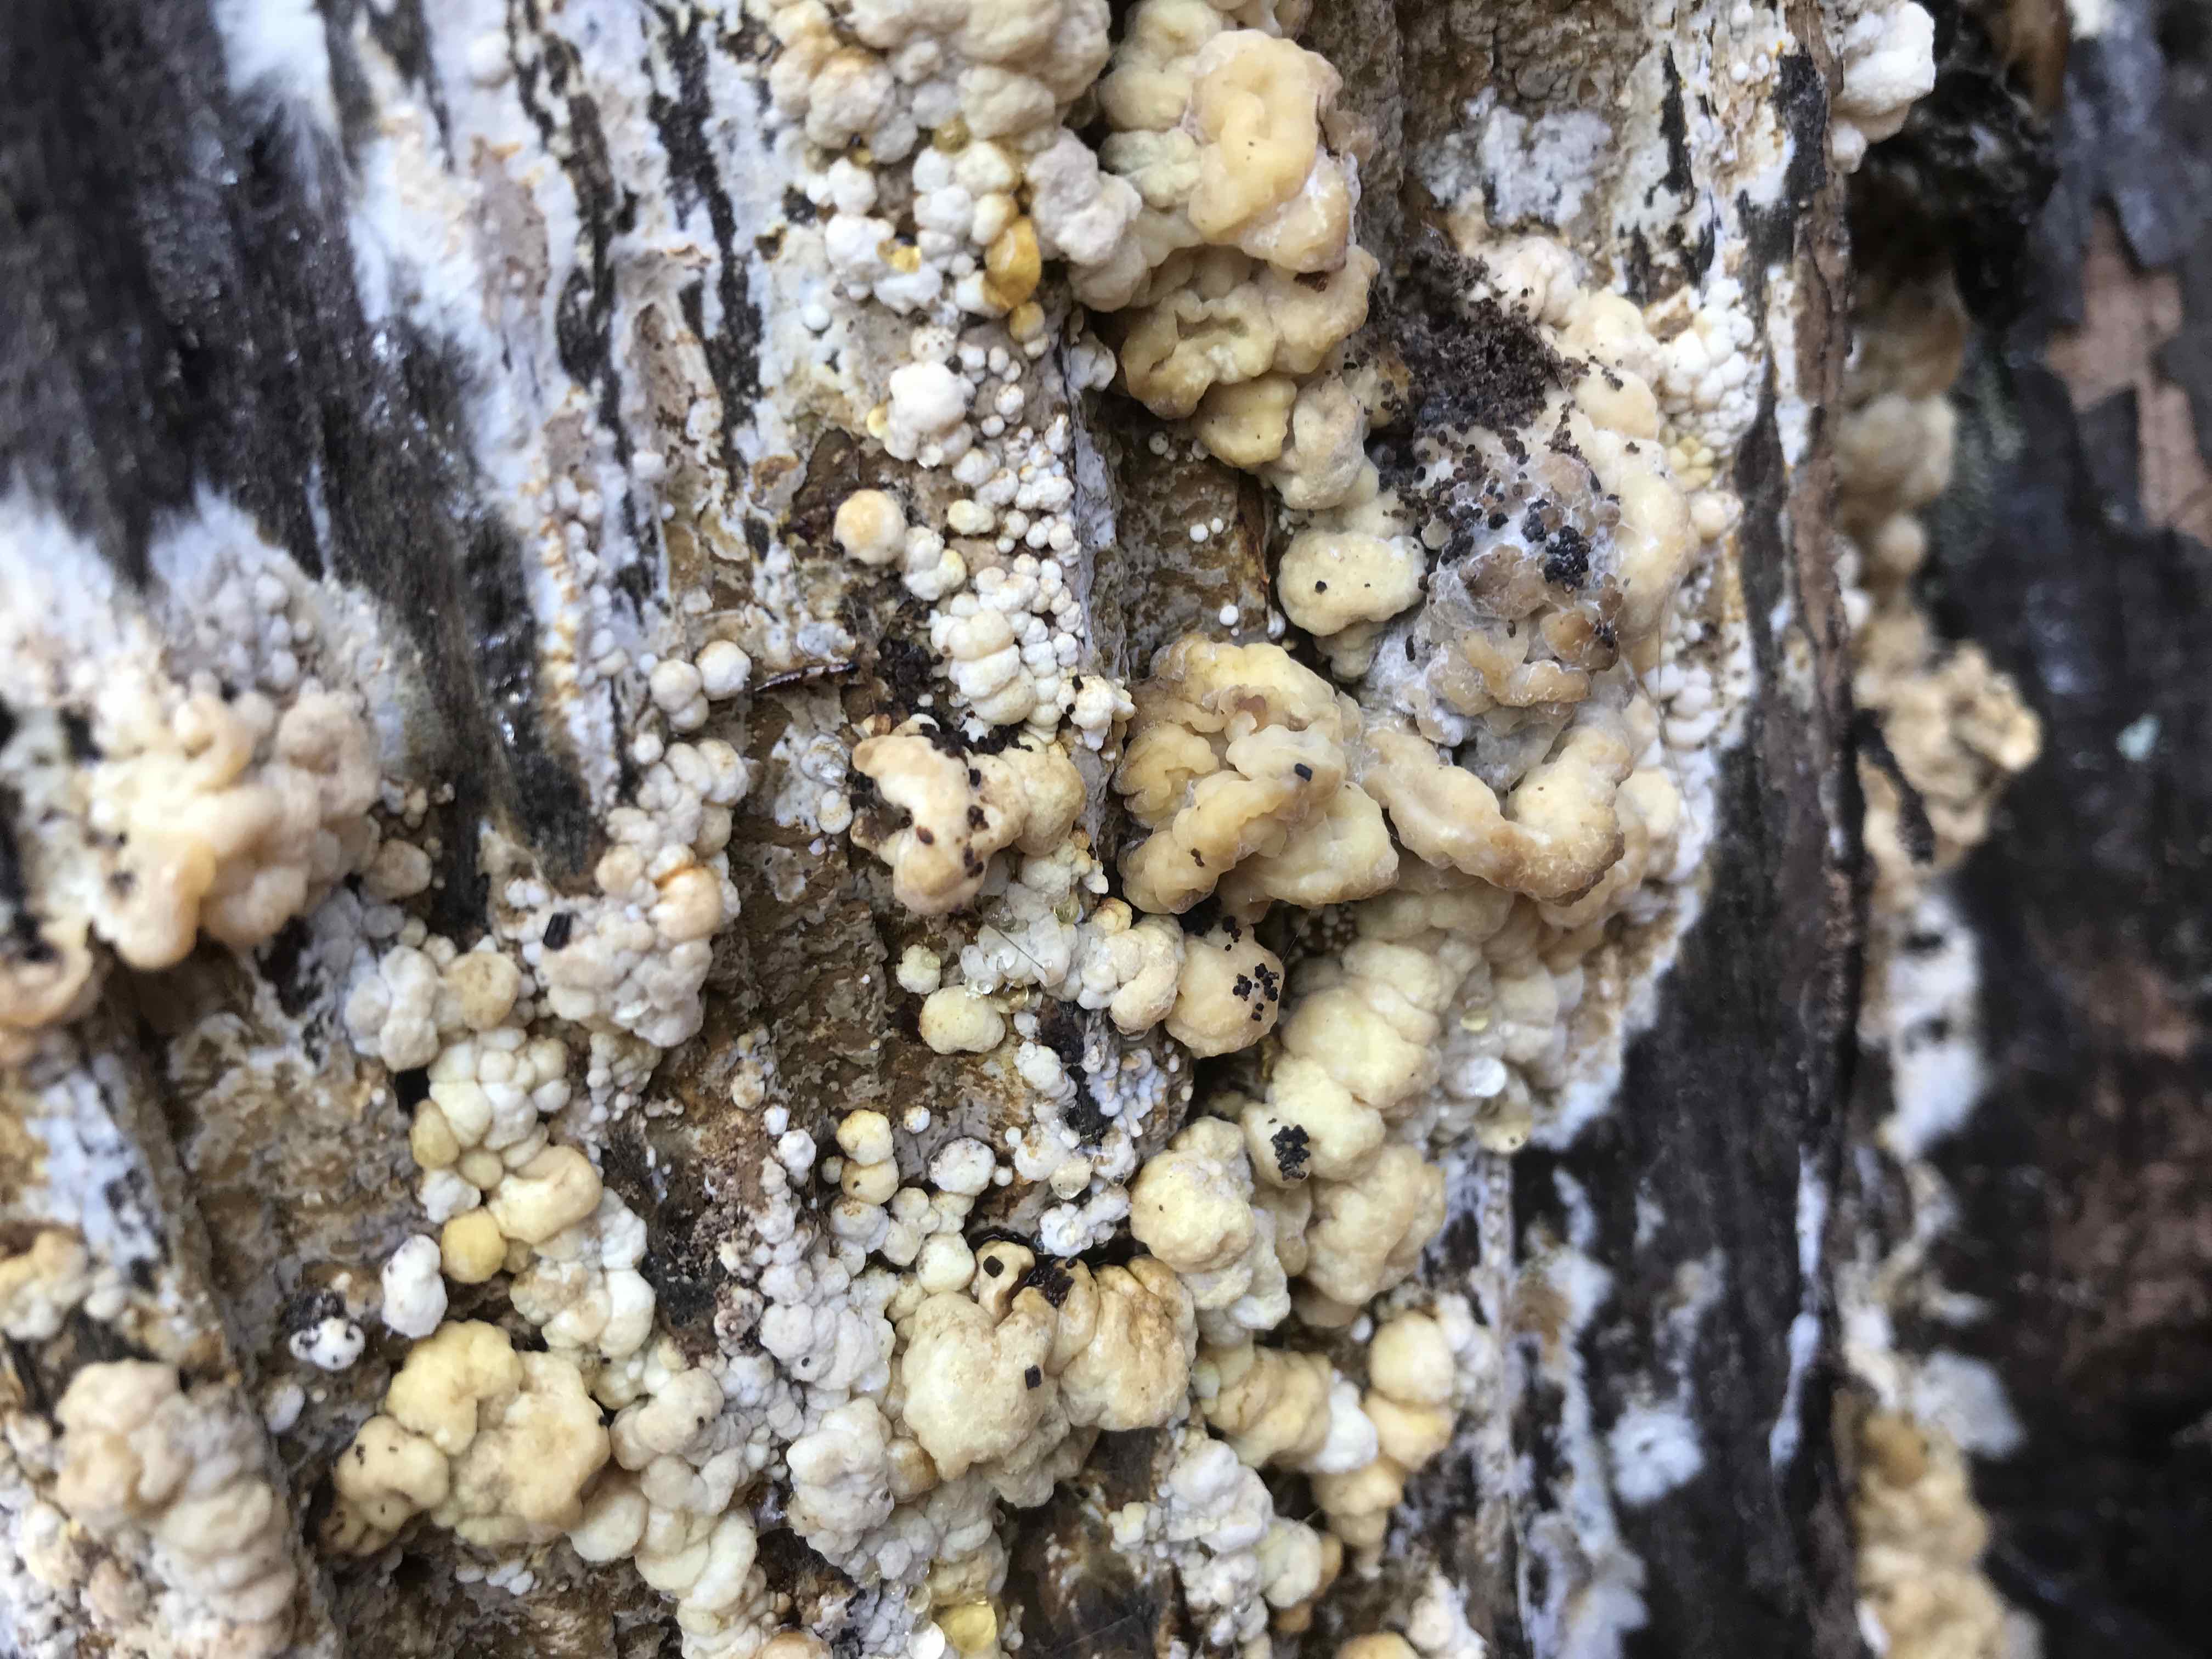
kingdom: Fungi
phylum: Ascomycota
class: Sordariomycetes
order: Xylariales
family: Hypoxylaceae
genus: Nodulisporium
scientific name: Nodulisporium cecidiogenes
